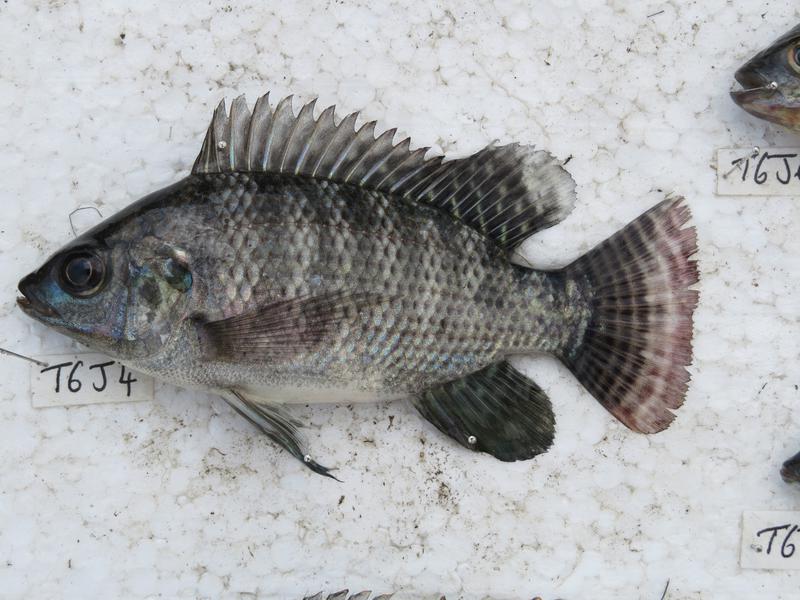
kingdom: Animalia
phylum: Chordata
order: Perciformes
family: Cichlidae
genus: Oreochromis
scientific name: Oreochromis niloticus
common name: Nile tilapia
